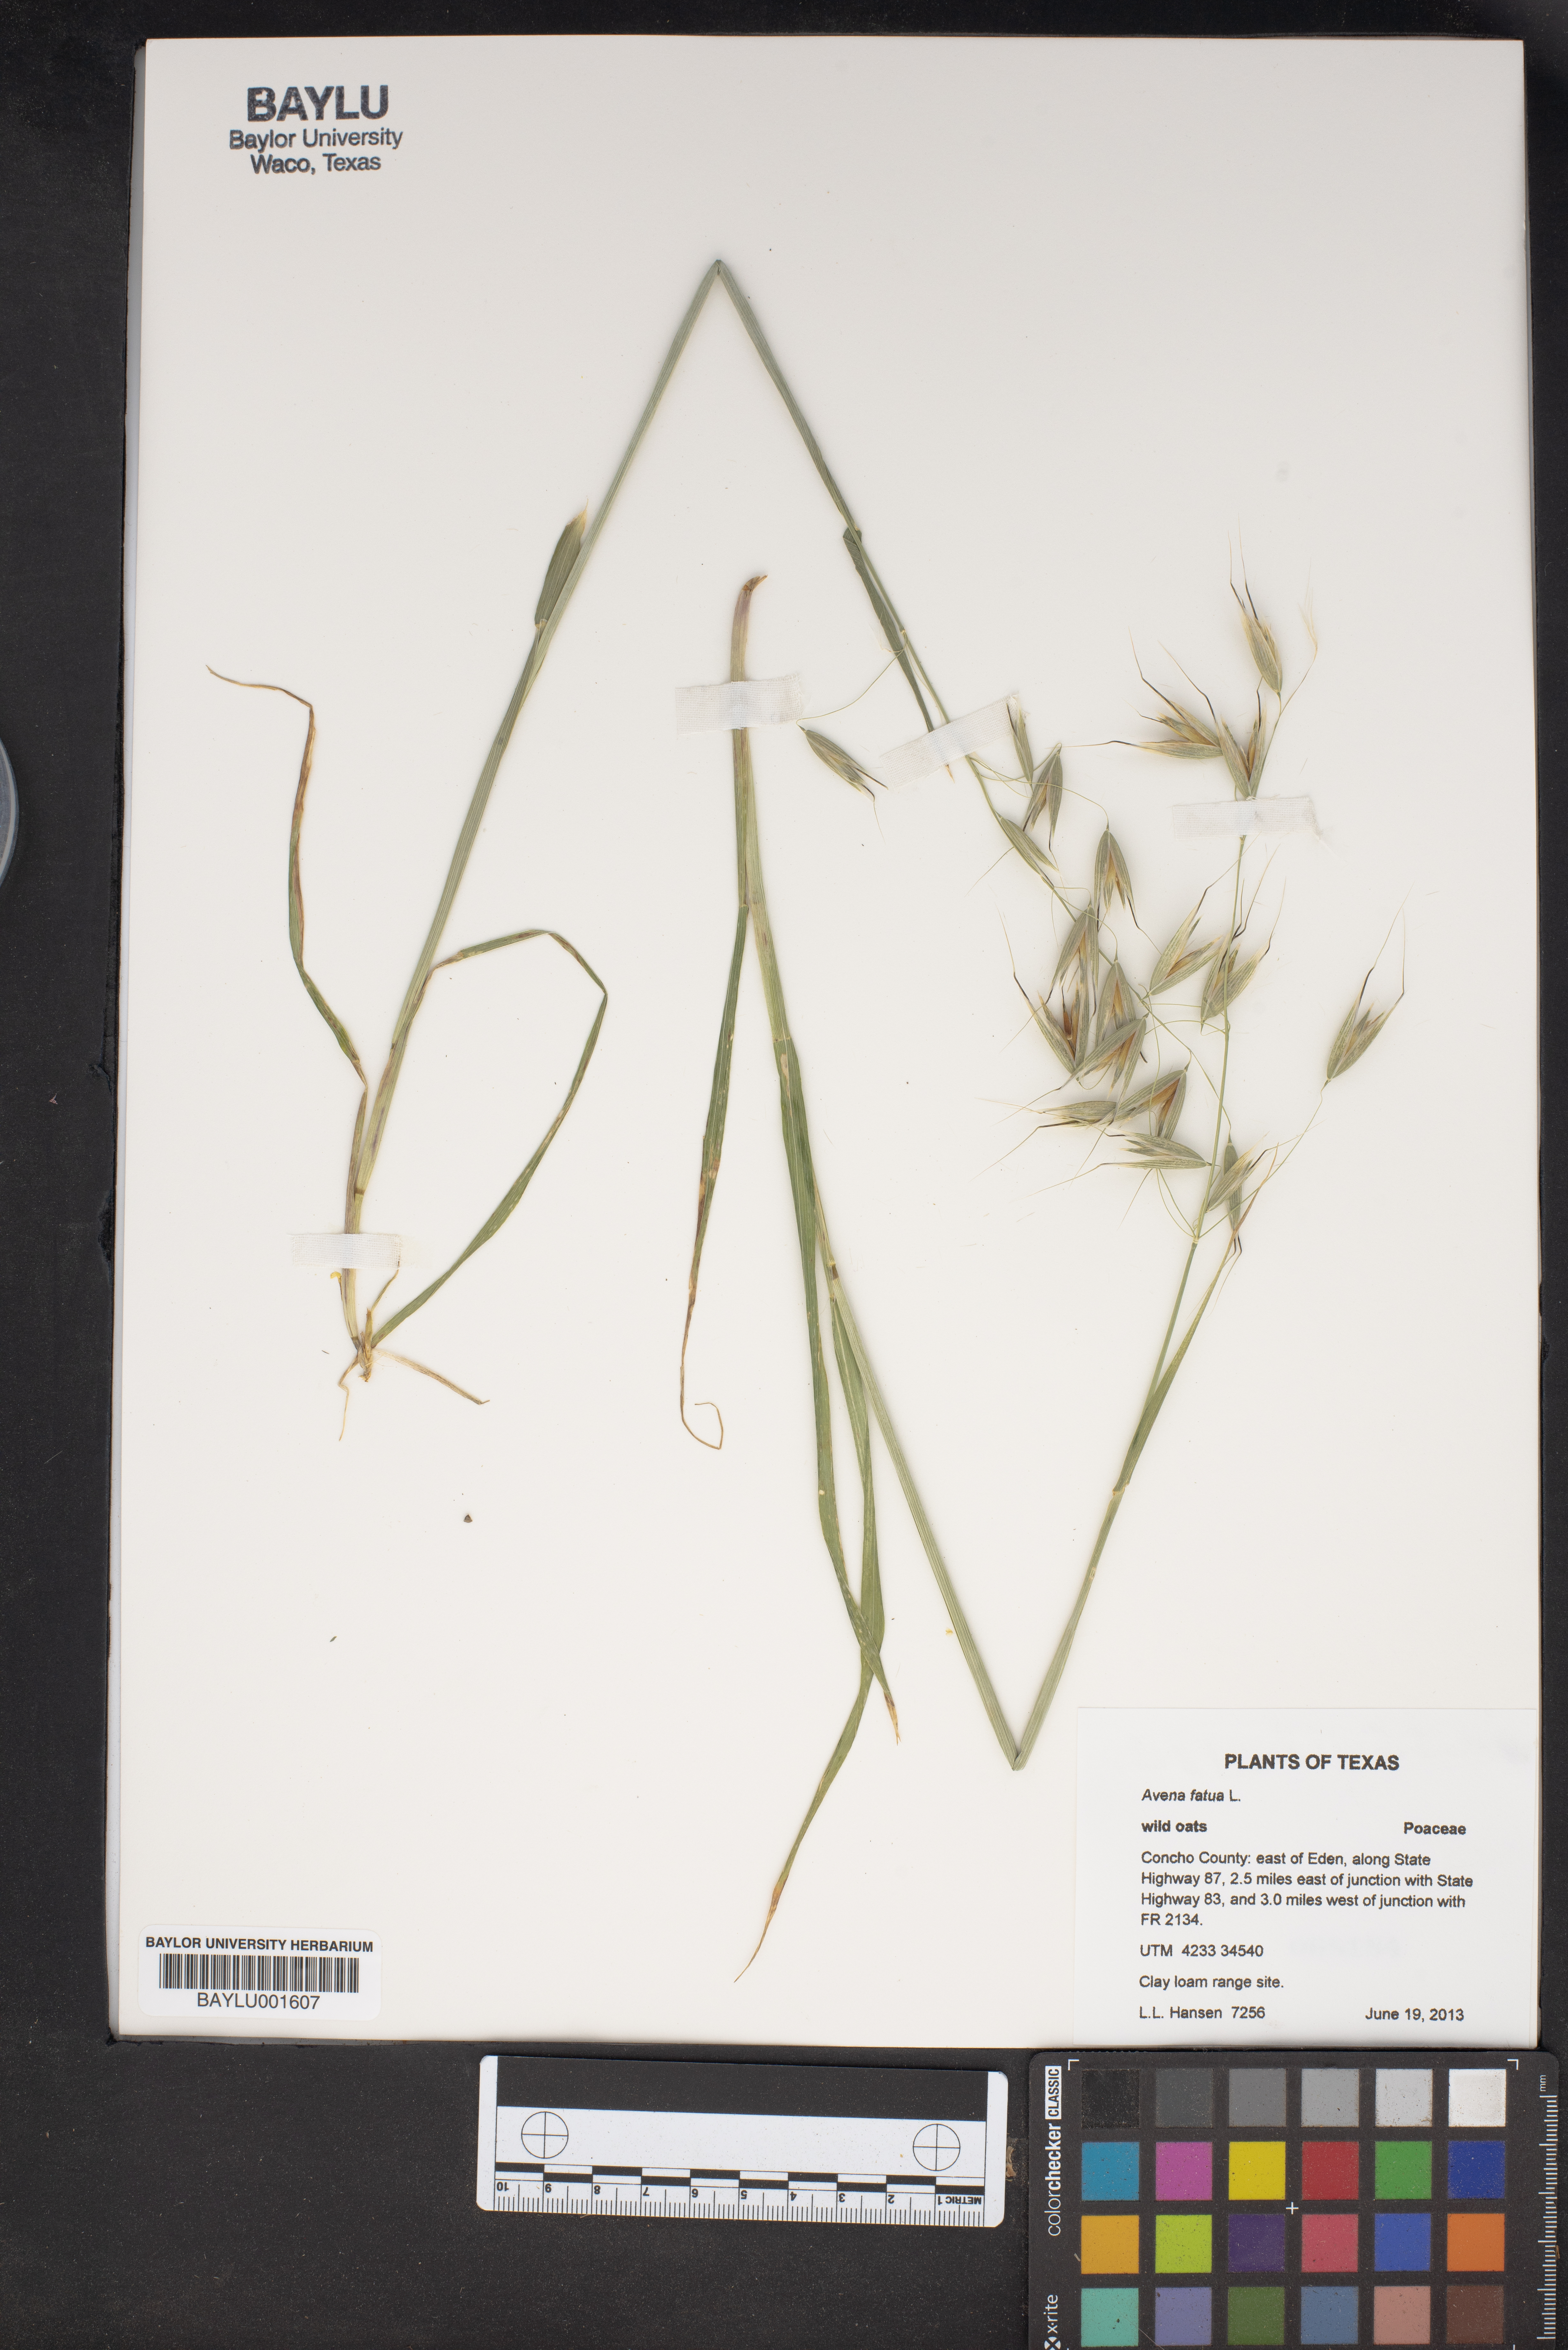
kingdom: Plantae
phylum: Tracheophyta
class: Liliopsida
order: Poales
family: Poaceae
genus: Avena
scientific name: Avena fatua
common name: Wild oat
